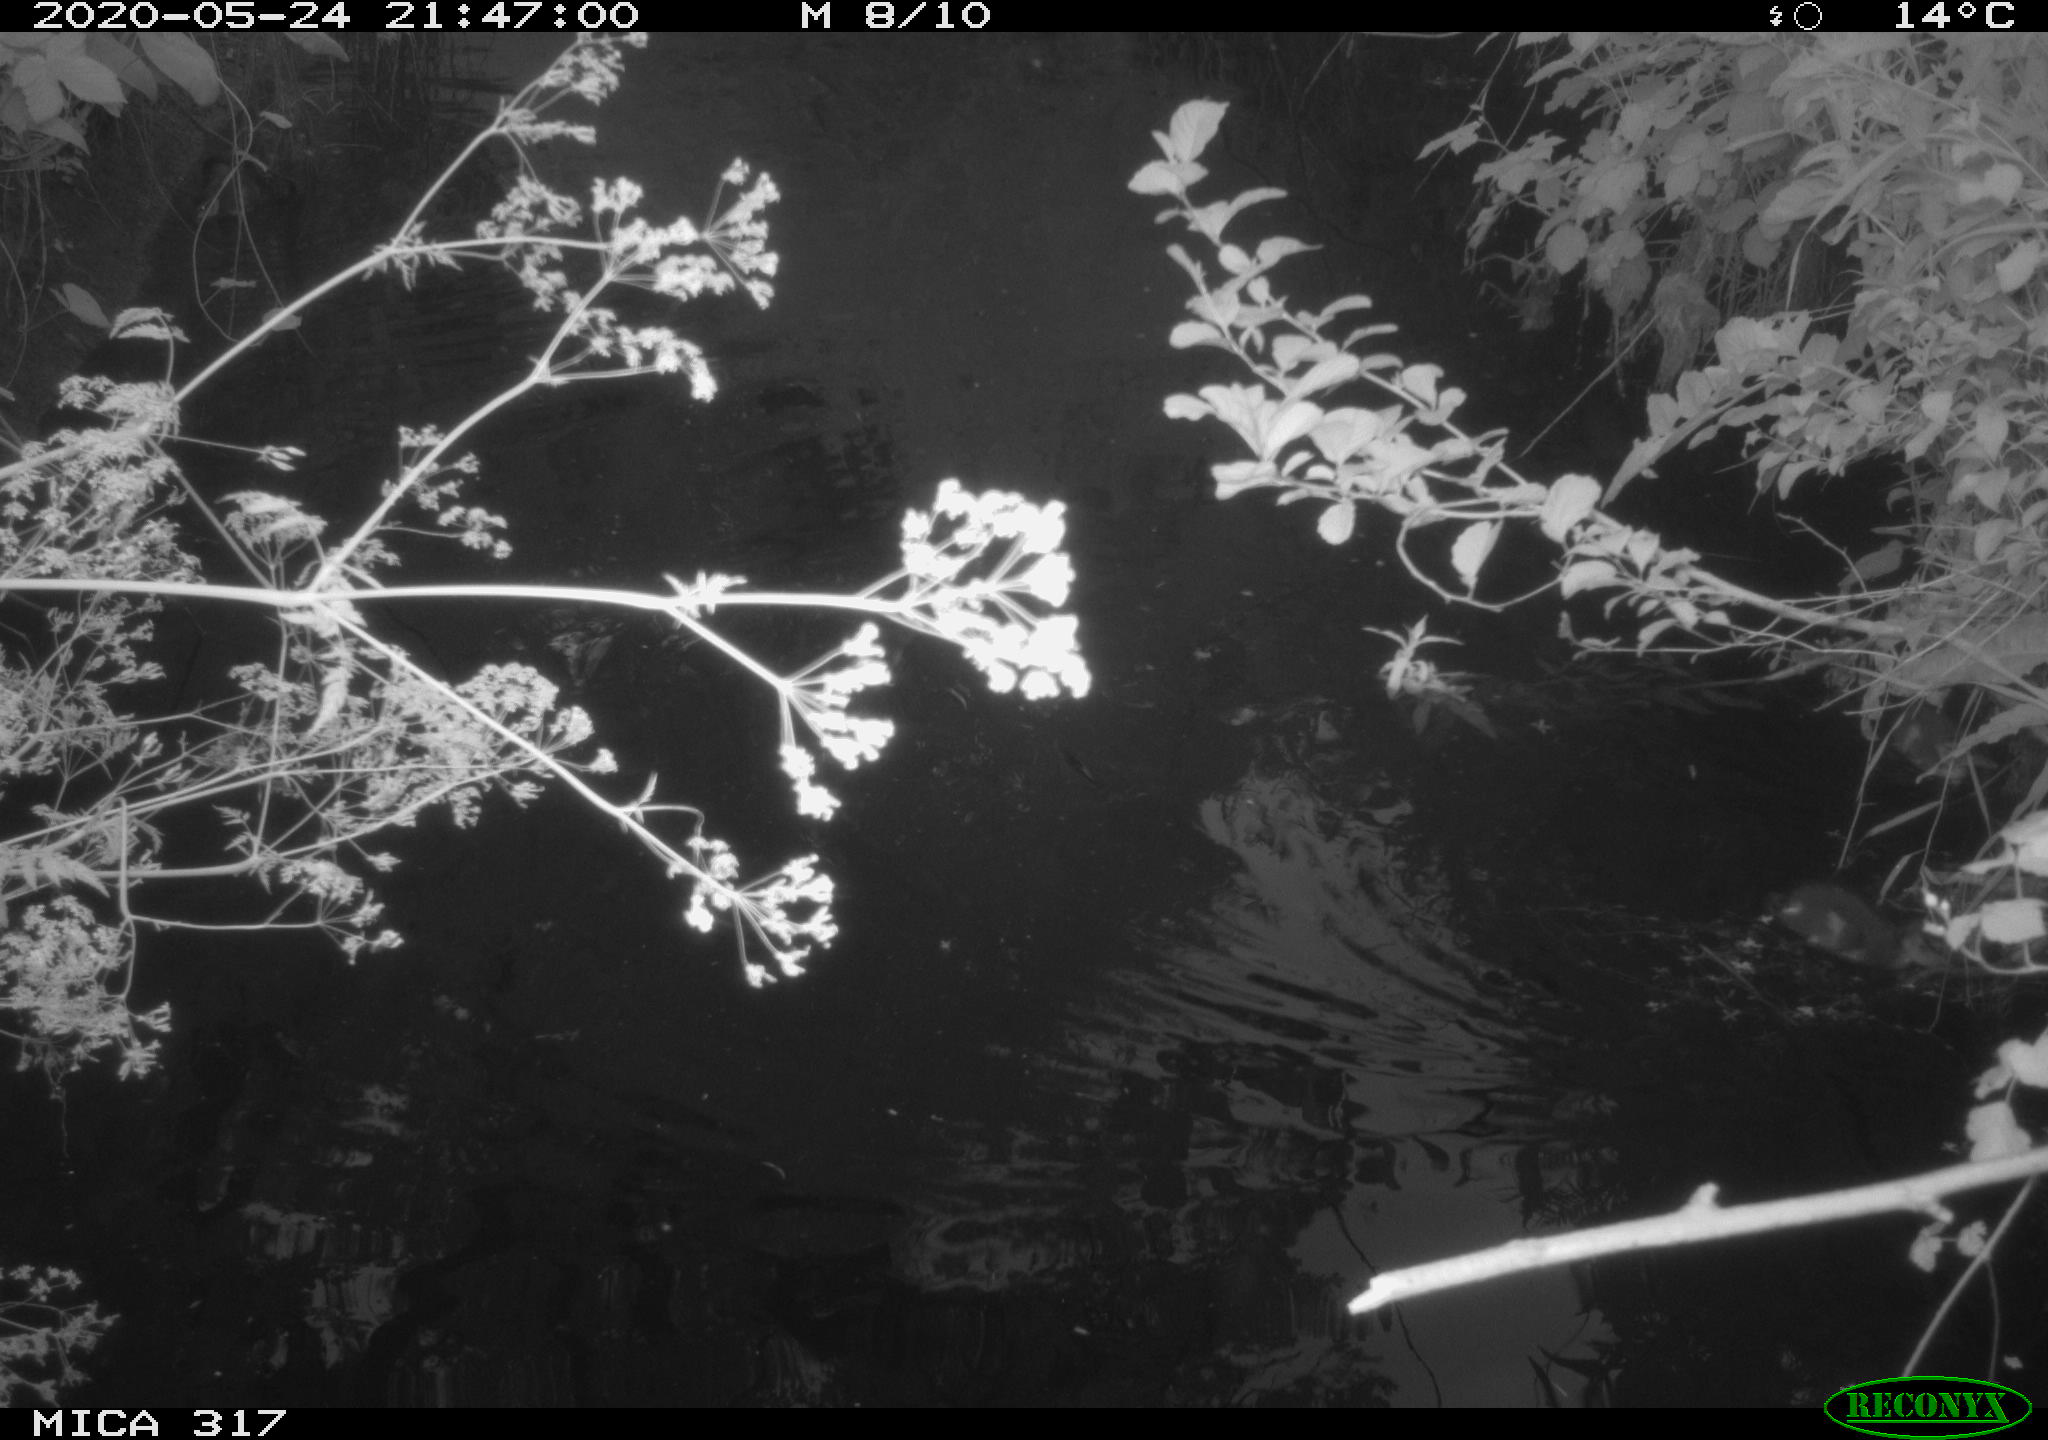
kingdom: Animalia
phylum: Chordata
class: Aves
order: Anseriformes
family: Anatidae
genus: Anas
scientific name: Anas platyrhynchos
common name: Mallard
